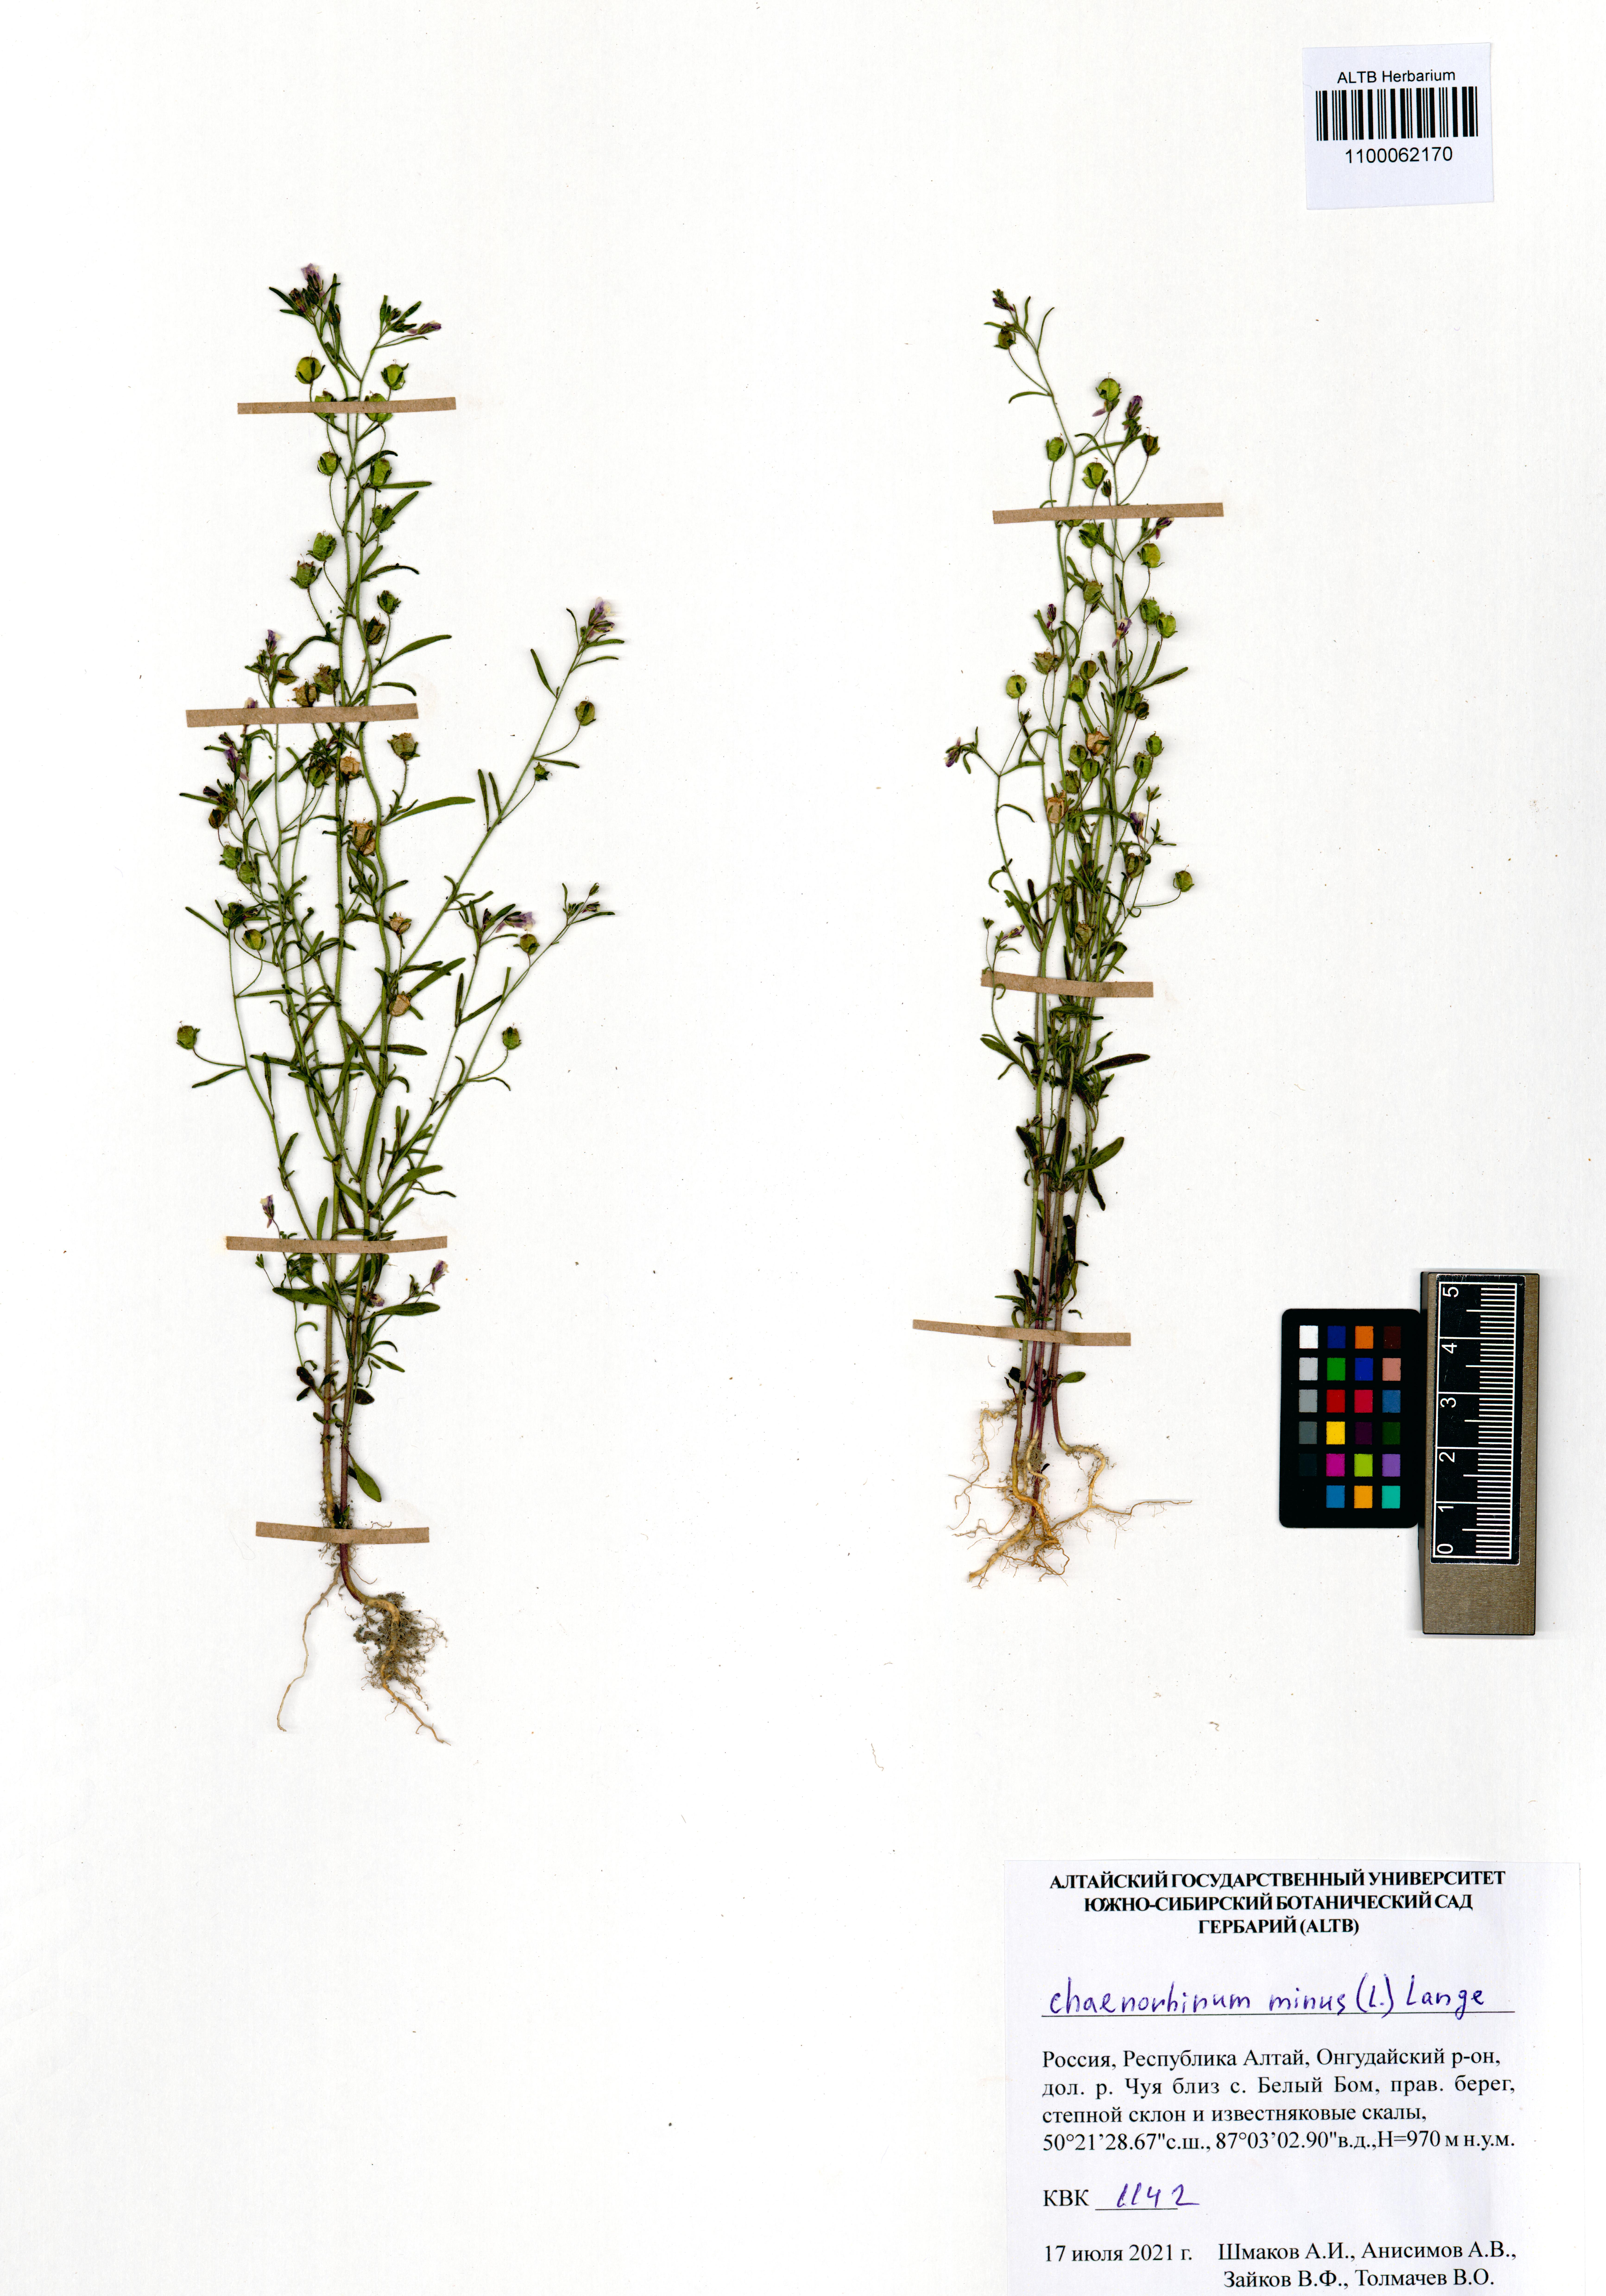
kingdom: Plantae
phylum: Tracheophyta
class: Magnoliopsida
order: Lamiales
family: Plantaginaceae
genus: Chaenorhinum
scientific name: Chaenorhinum minus
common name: Dwarf snapdragon
